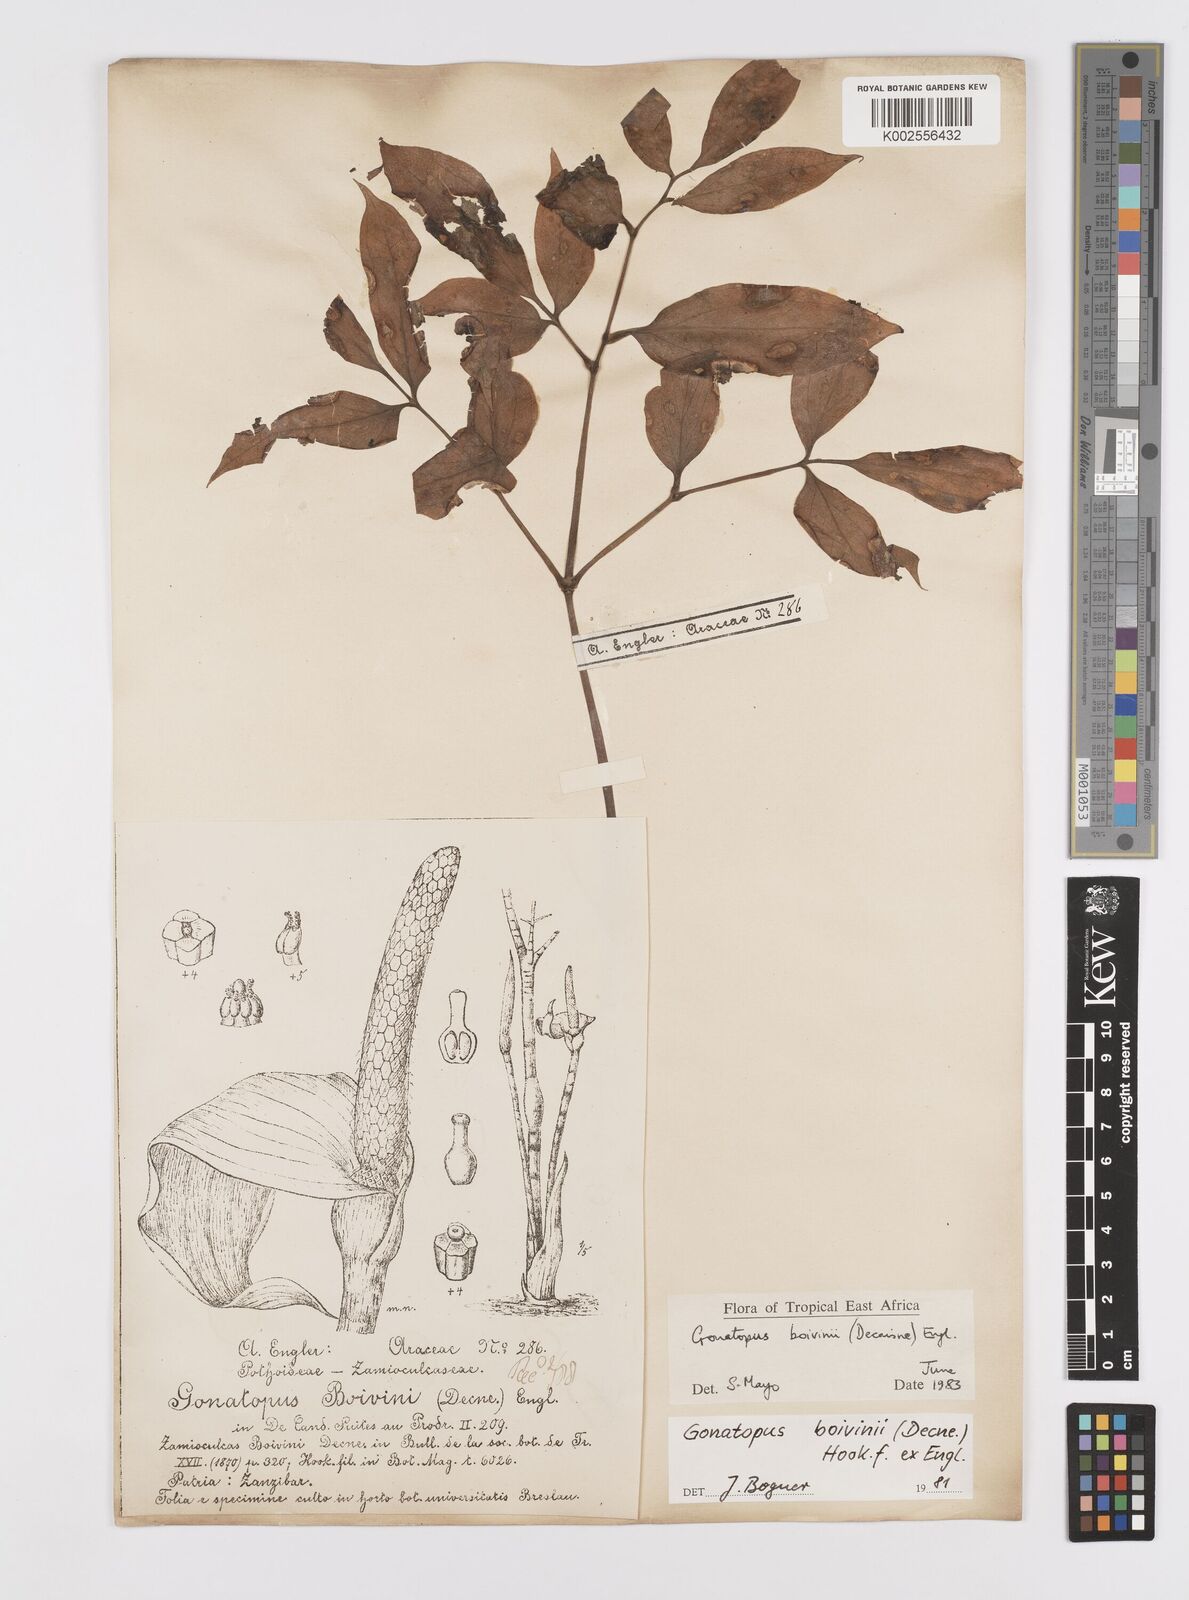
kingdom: Plantae
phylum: Tracheophyta
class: Liliopsida
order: Alismatales
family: Araceae
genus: Gonatopus
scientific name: Gonatopus boivinii
